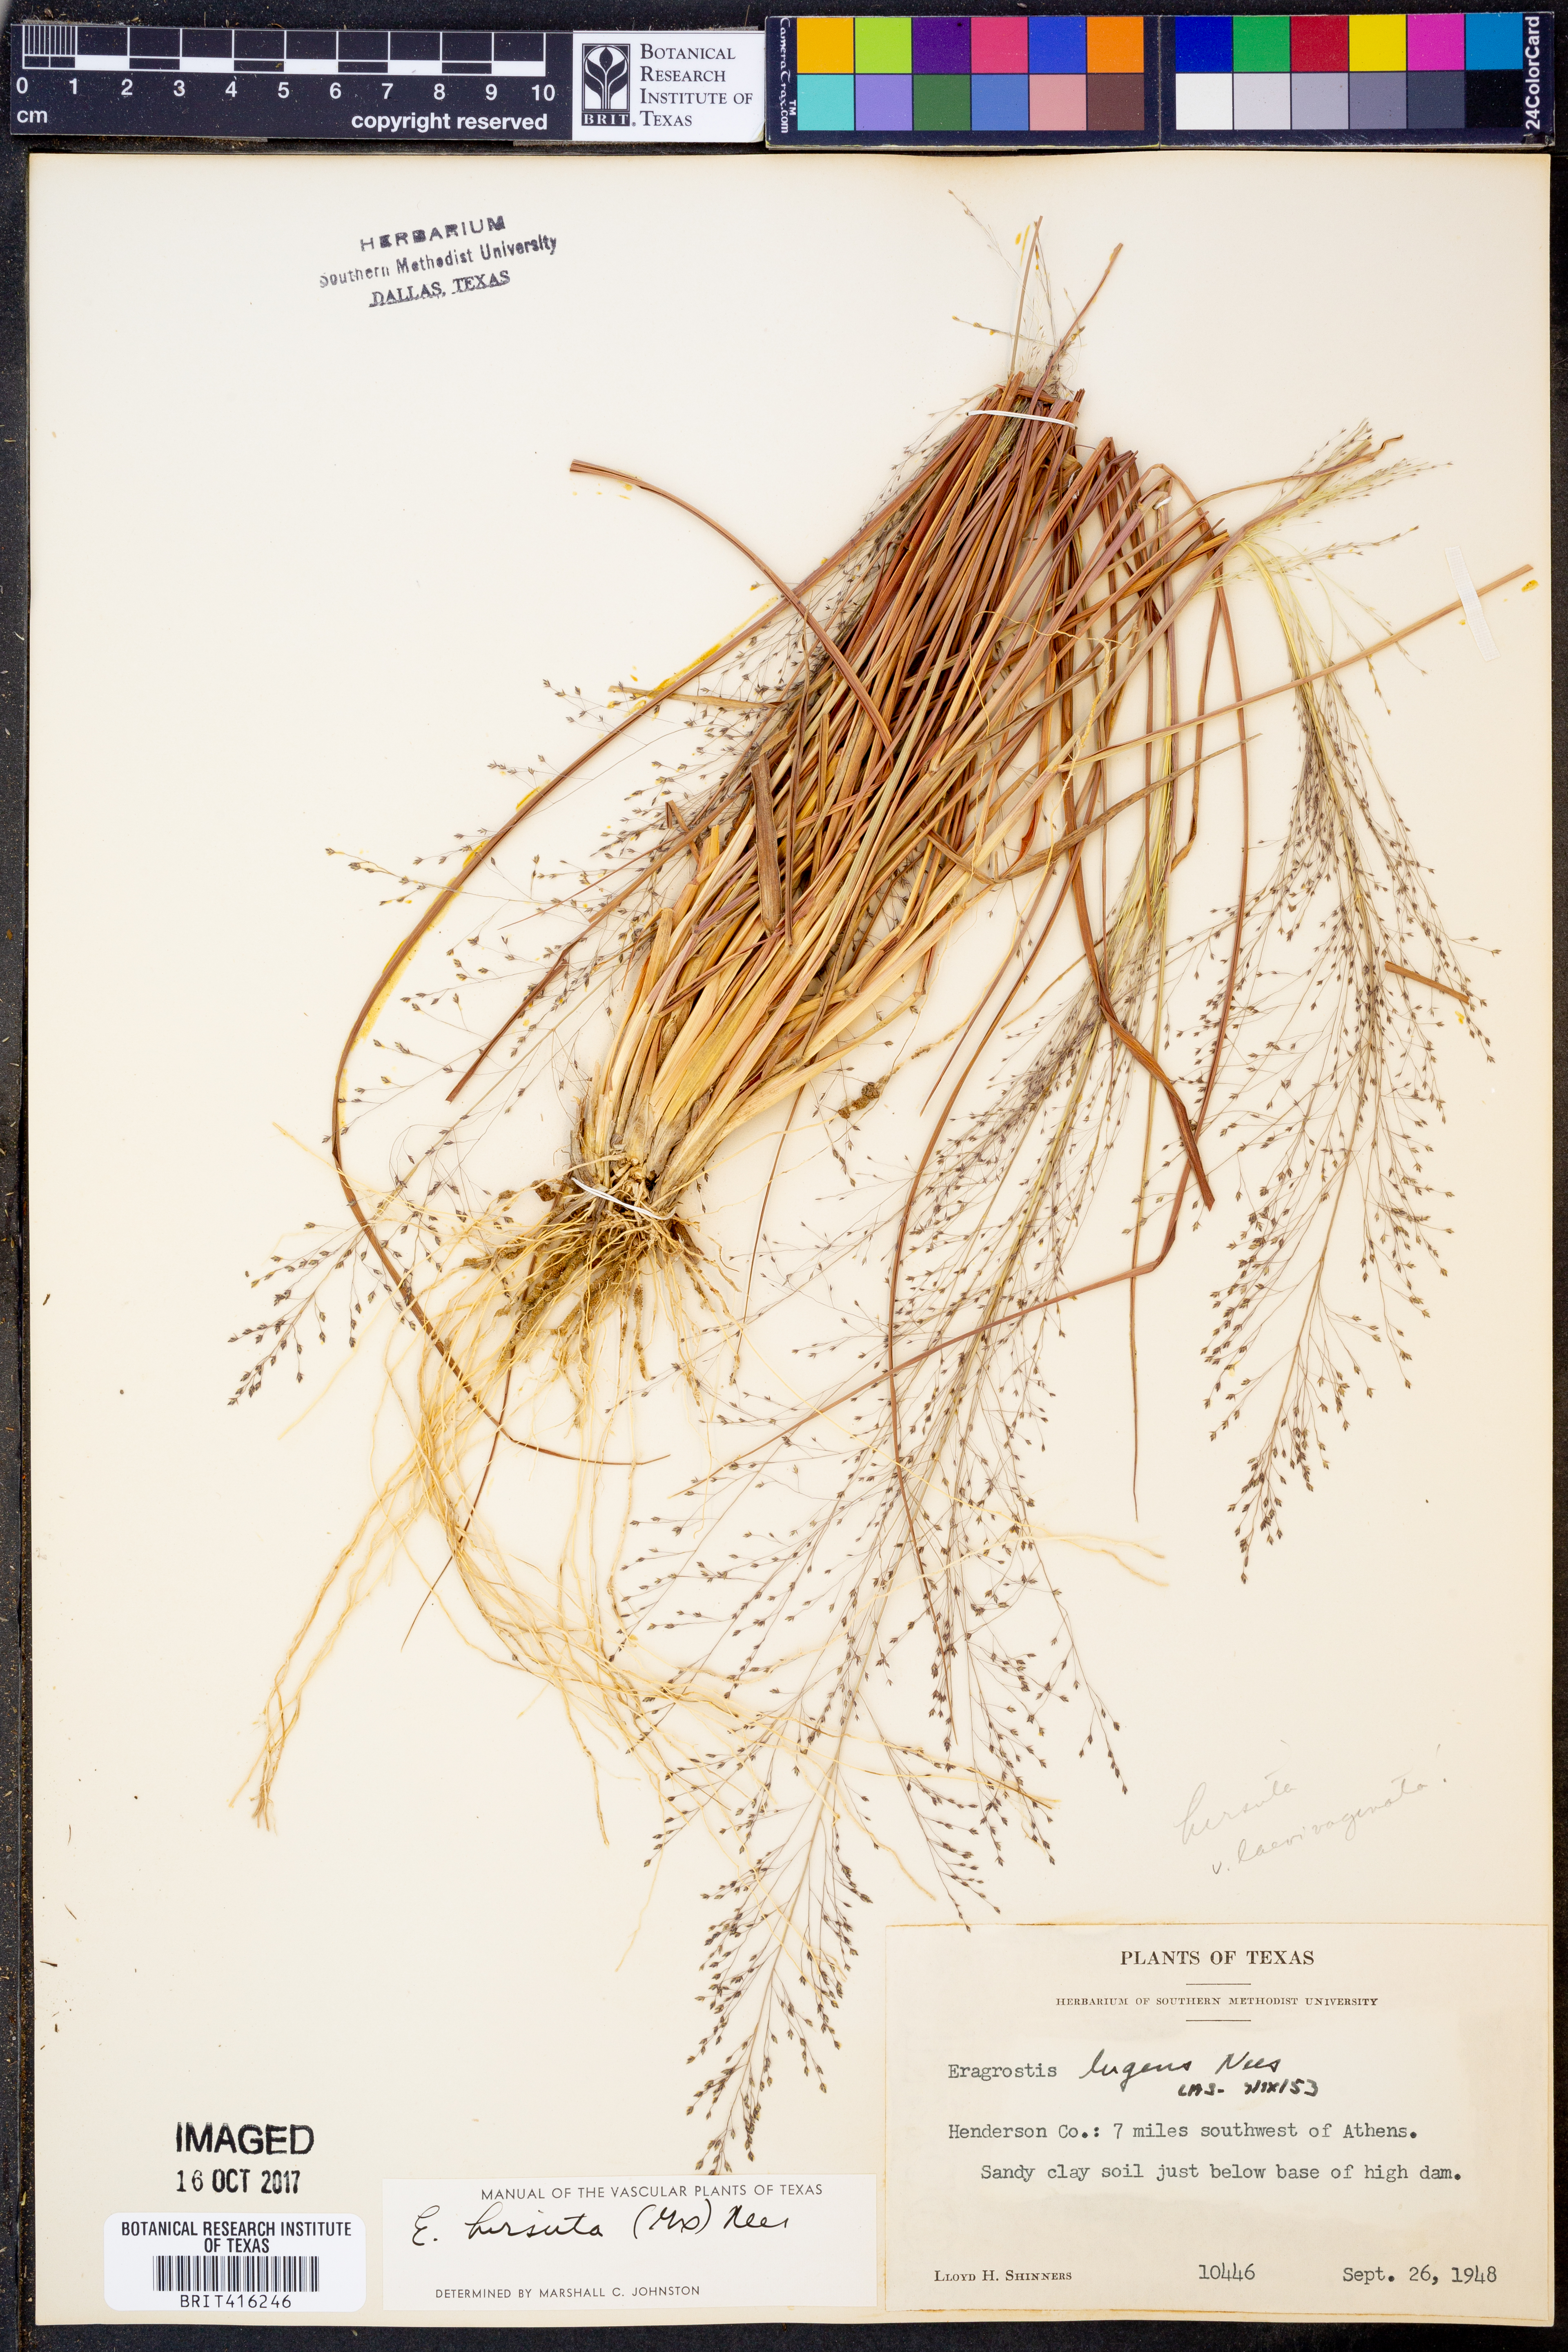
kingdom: Plantae
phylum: Tracheophyta
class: Liliopsida
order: Poales
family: Poaceae
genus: Eragrostis
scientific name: Eragrostis hirsuta
